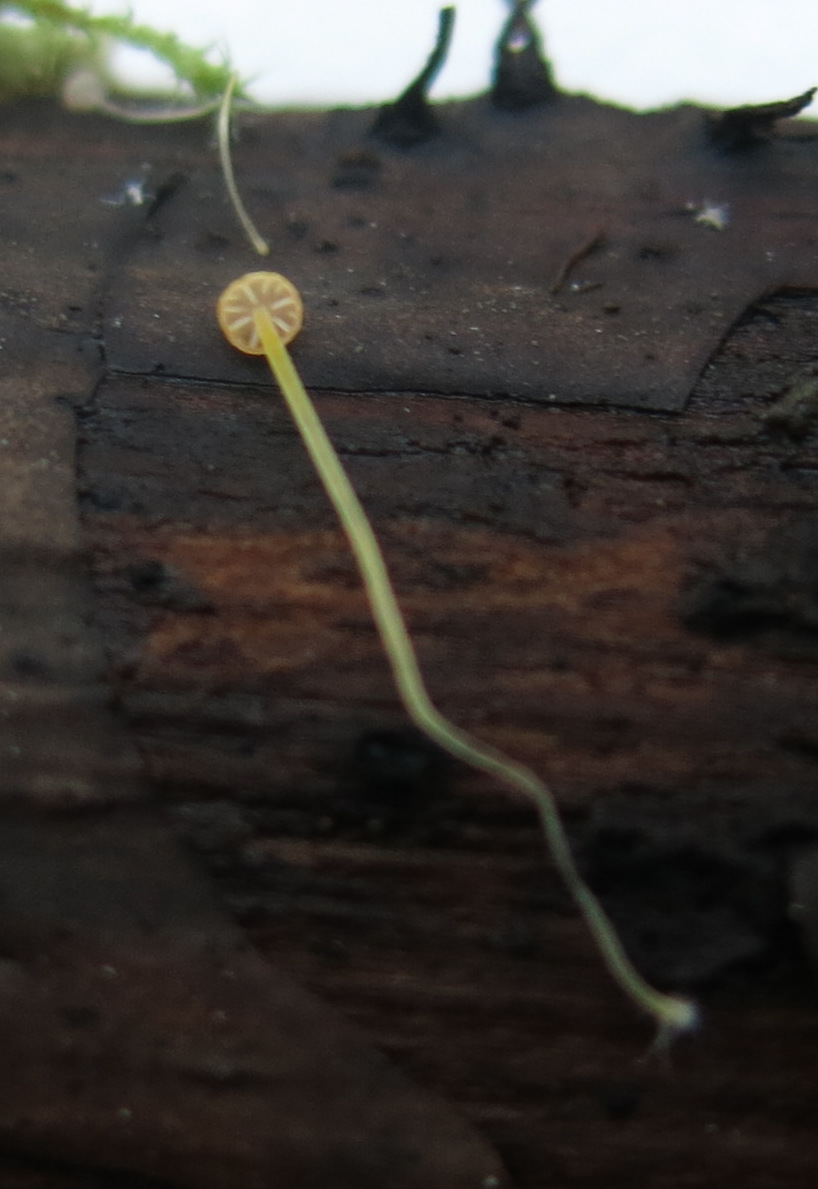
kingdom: Fungi
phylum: Basidiomycota
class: Agaricomycetes
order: Agaricales
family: Mycenaceae
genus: Mycena
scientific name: Mycena acicula
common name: orange huesvamp
